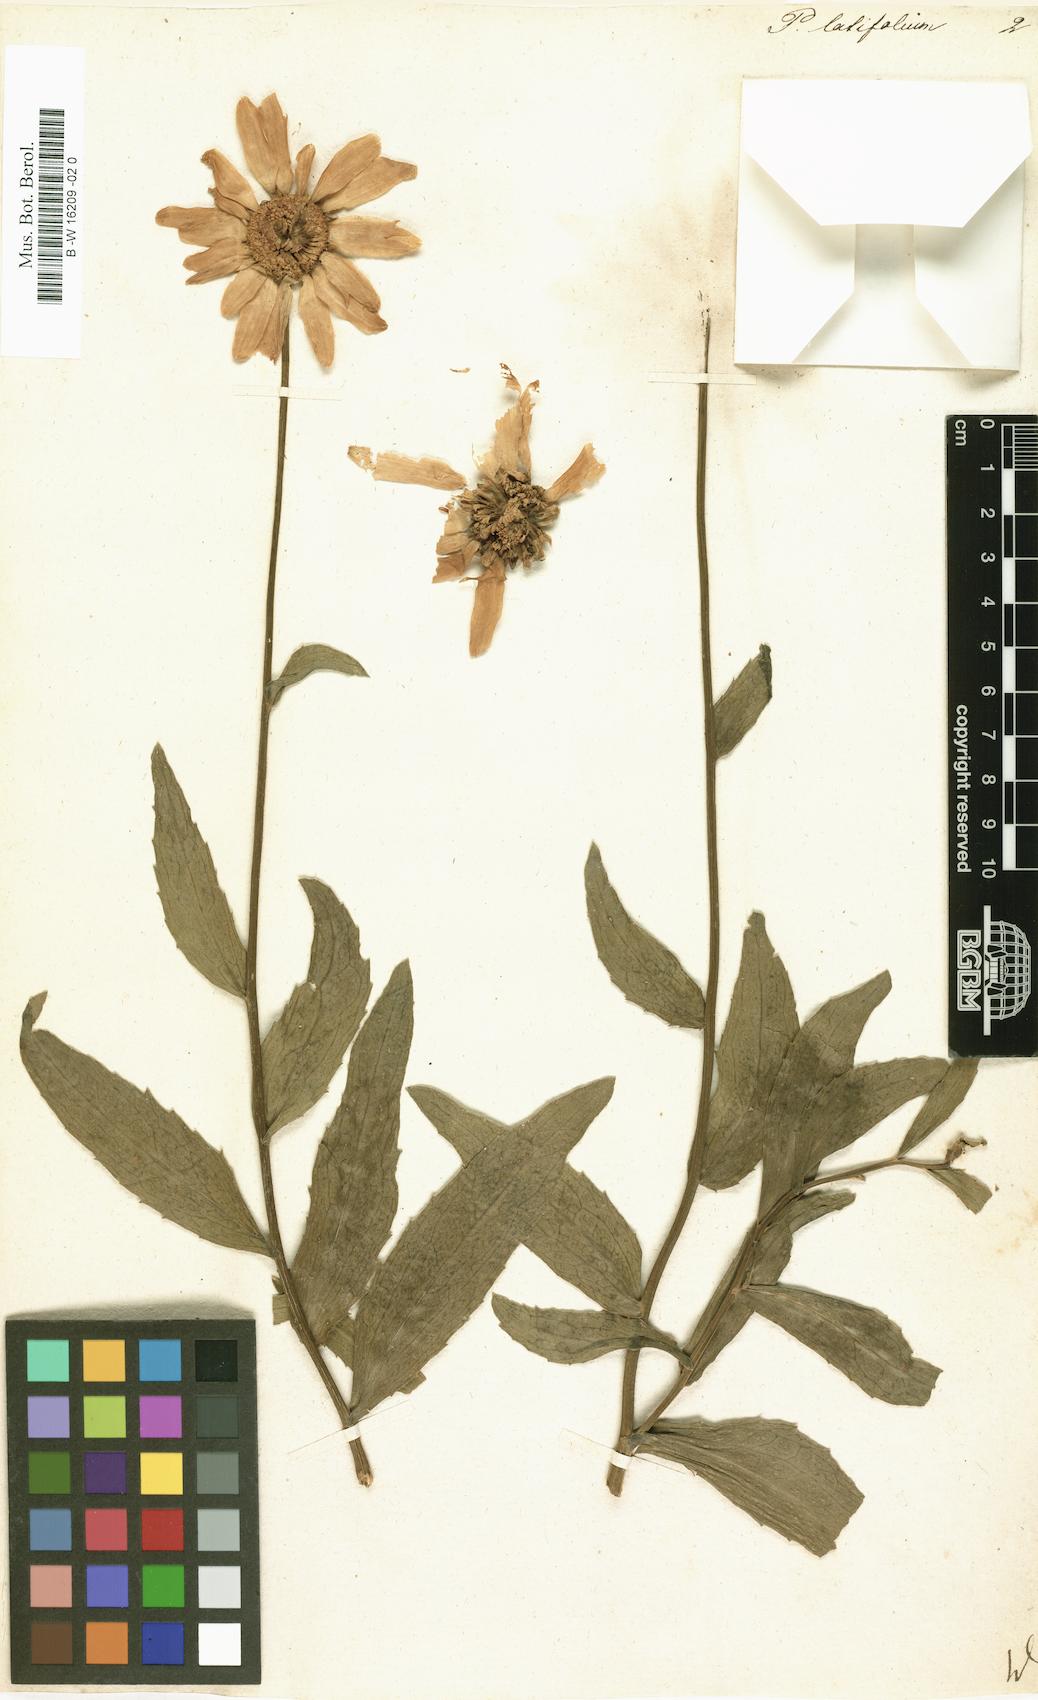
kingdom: Plantae
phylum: Tracheophyta
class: Magnoliopsida
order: Asterales
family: Asteraceae
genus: Leucanthemum
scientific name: Leucanthemum lacustre
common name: Portuguese daisy
